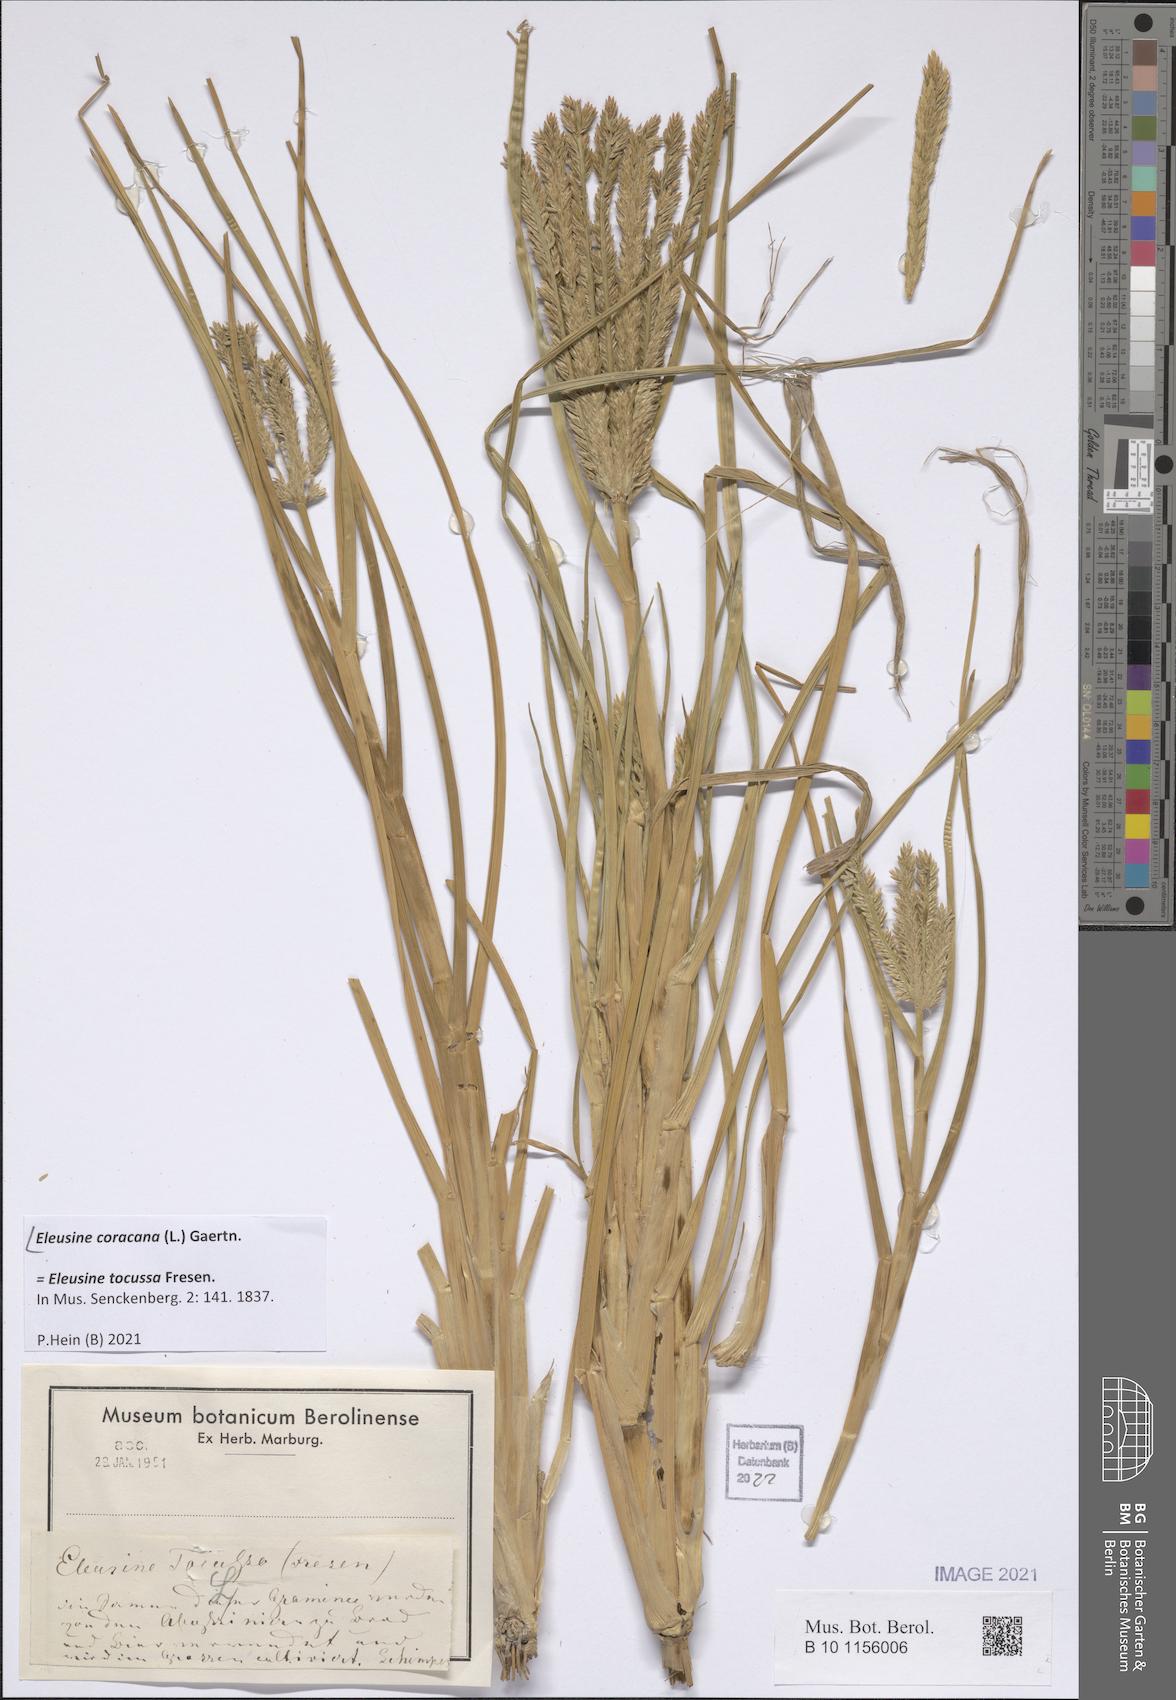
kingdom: Plantae
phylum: Tracheophyta
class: Liliopsida
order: Poales
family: Poaceae
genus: Eleusine
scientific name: Eleusine coracana
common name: Finger millet
